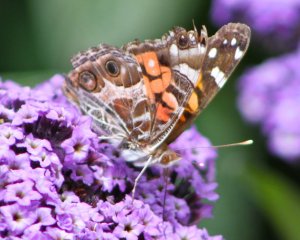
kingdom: Animalia
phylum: Arthropoda
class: Insecta
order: Lepidoptera
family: Nymphalidae
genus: Vanessa
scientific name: Vanessa virginiensis
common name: American Lady
